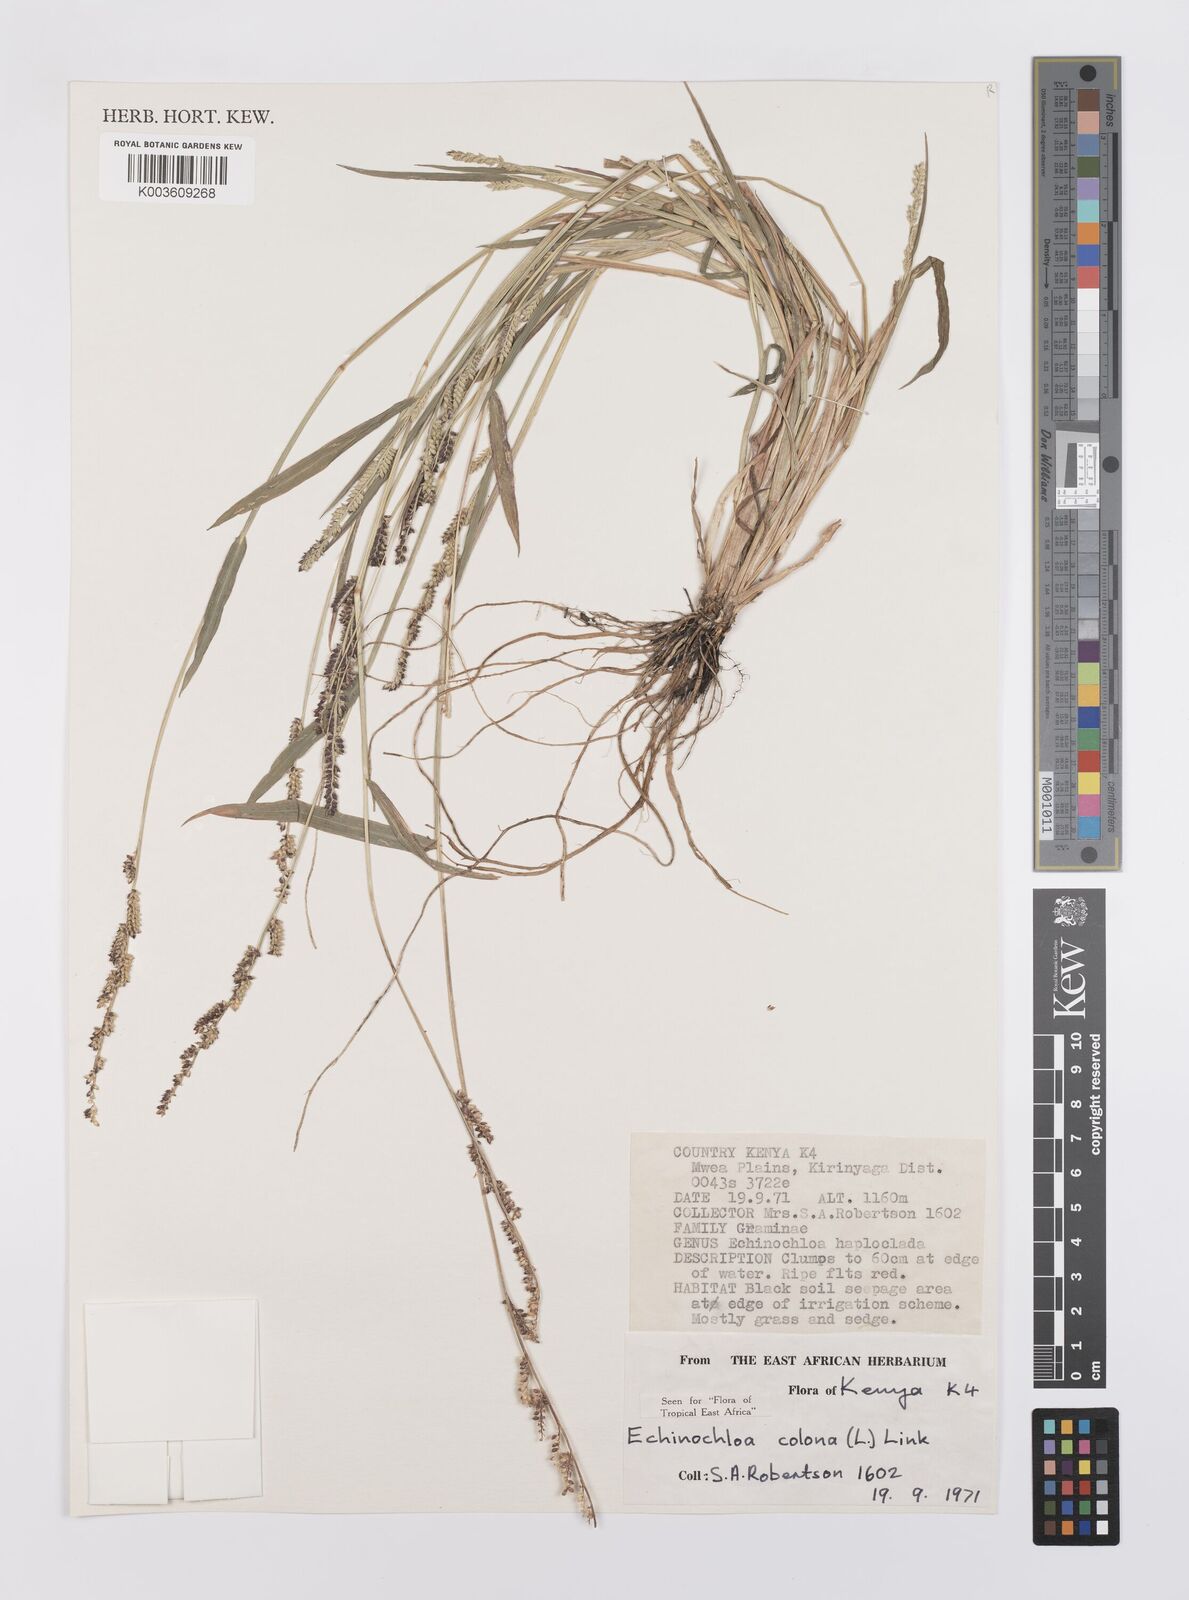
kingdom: Plantae
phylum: Tracheophyta
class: Liliopsida
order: Poales
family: Poaceae
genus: Echinochloa
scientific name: Echinochloa colonum
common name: Jungle rice
